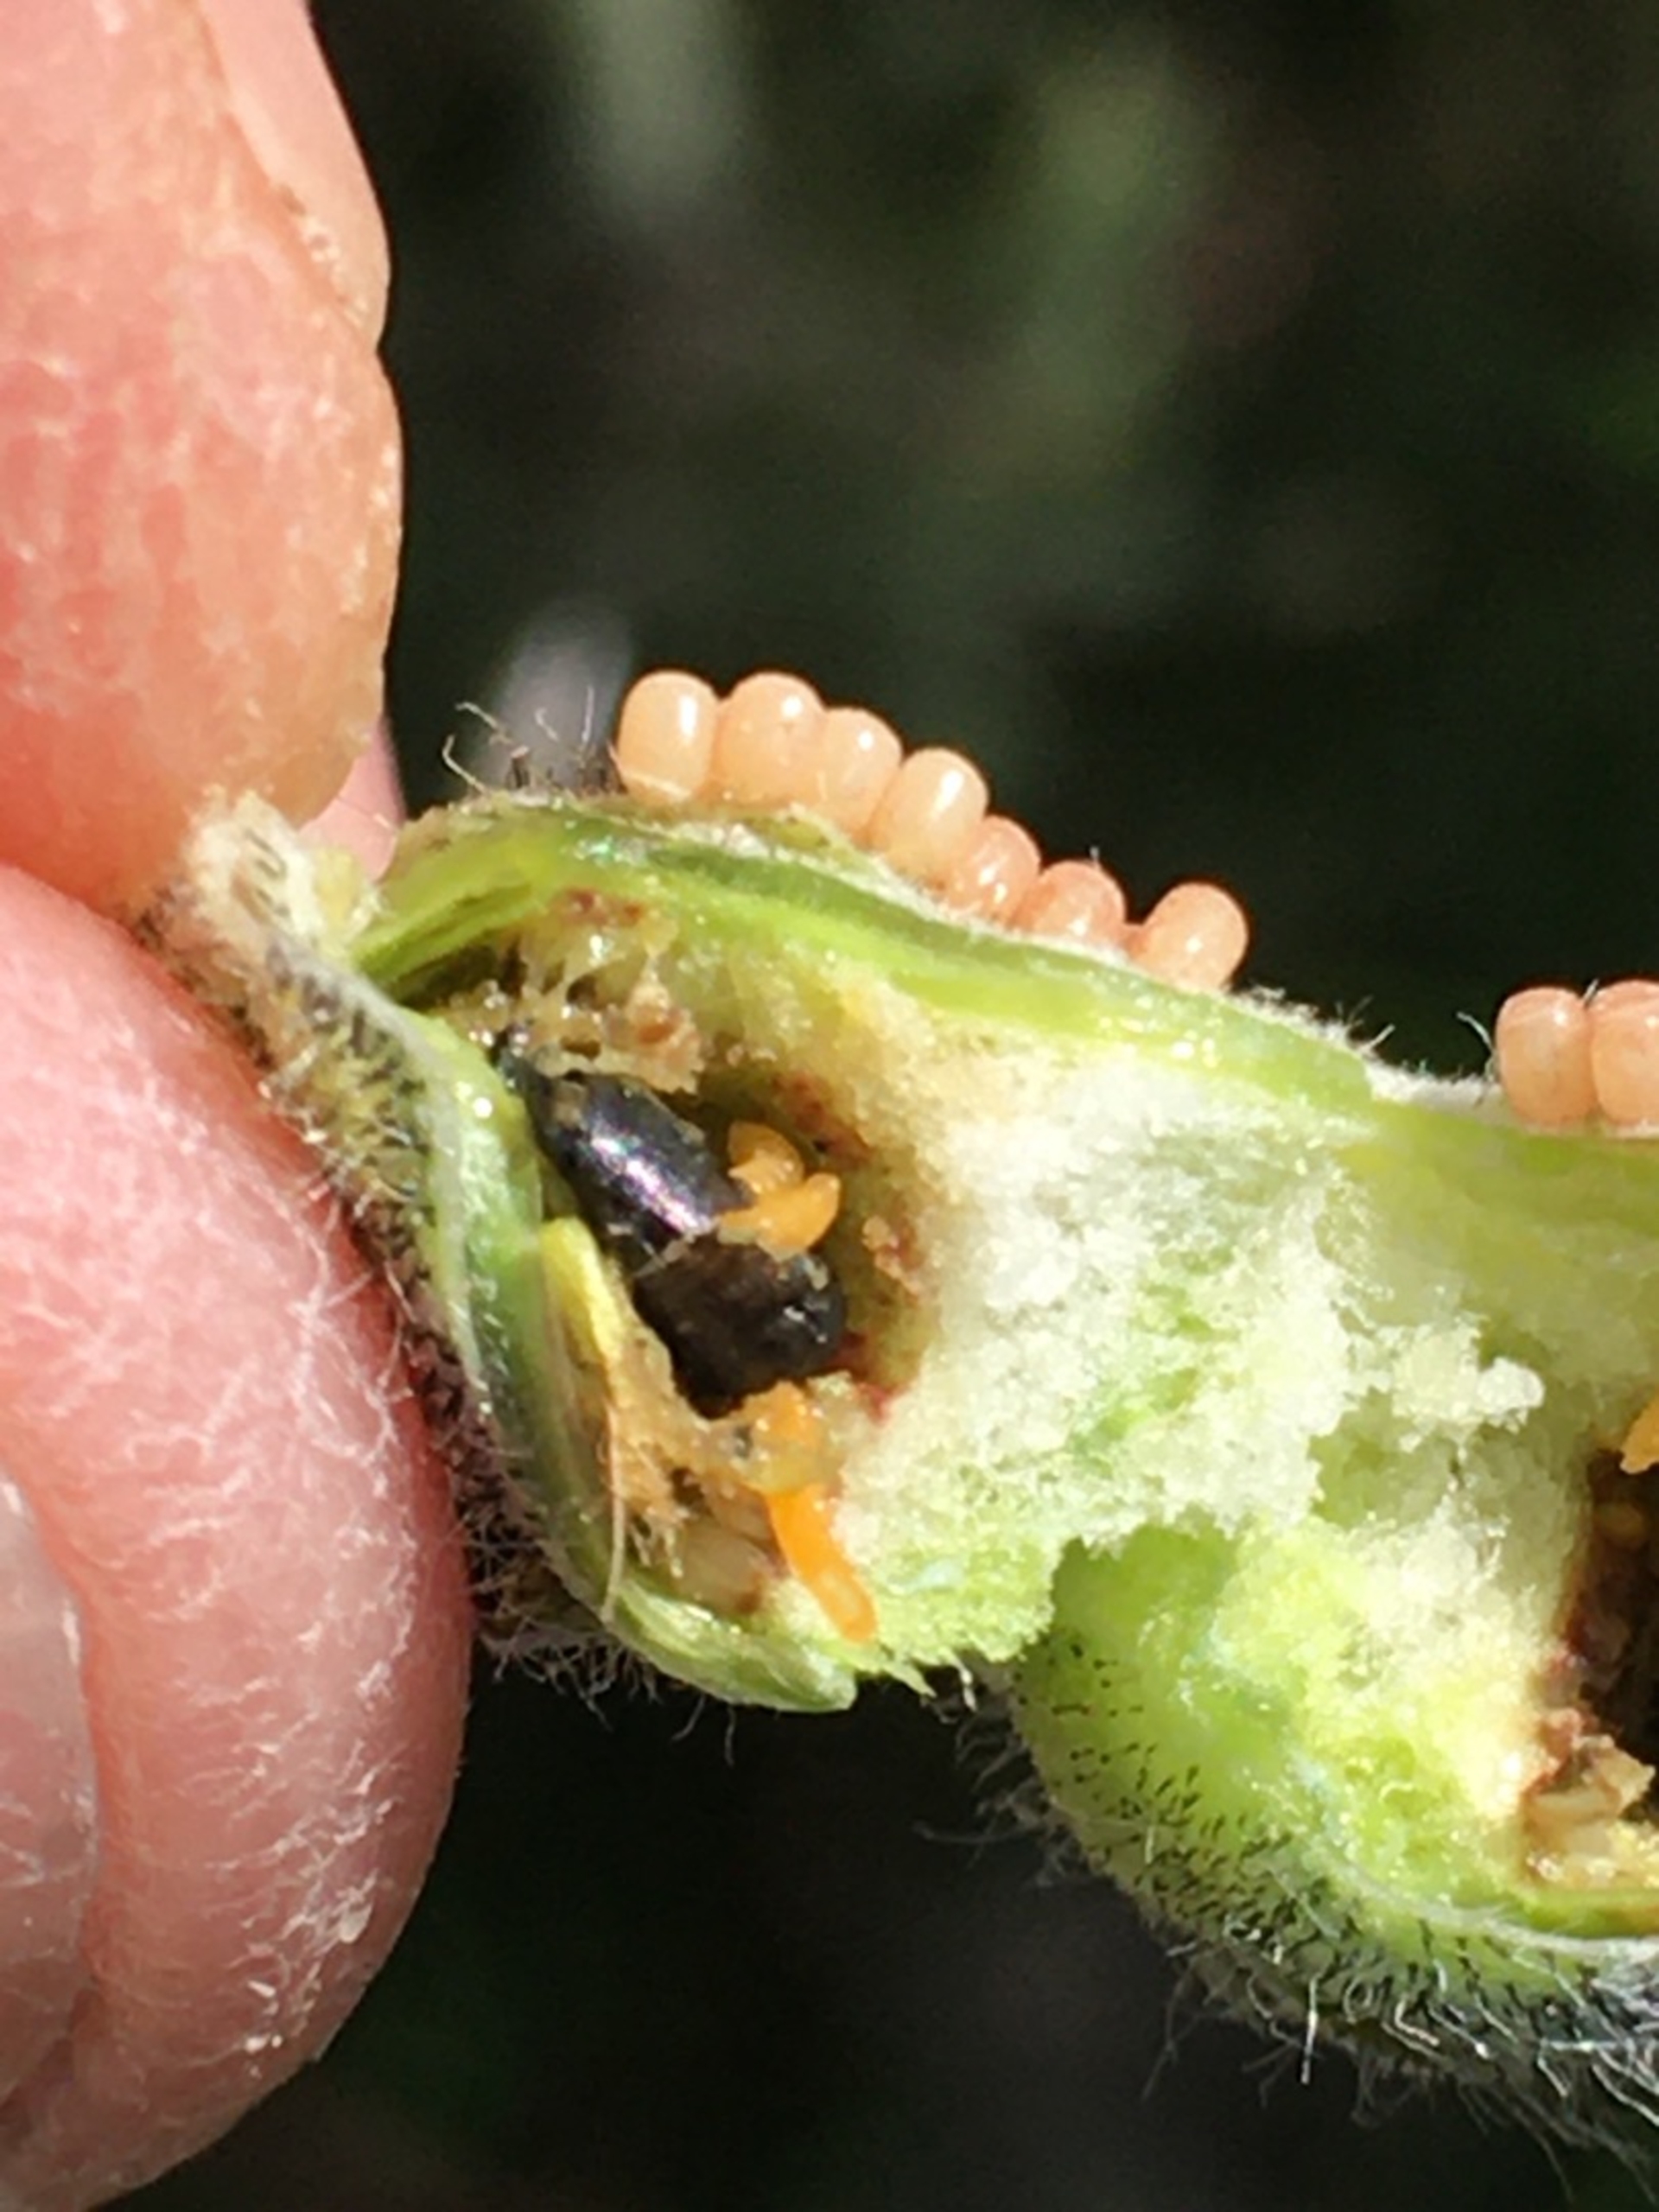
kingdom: Animalia
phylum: Arthropoda
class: Insecta
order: Diptera
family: Cecidomyiidae
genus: Contarinia
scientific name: Contarinia pilosellae
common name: Høgeurtkurvgalmyg
